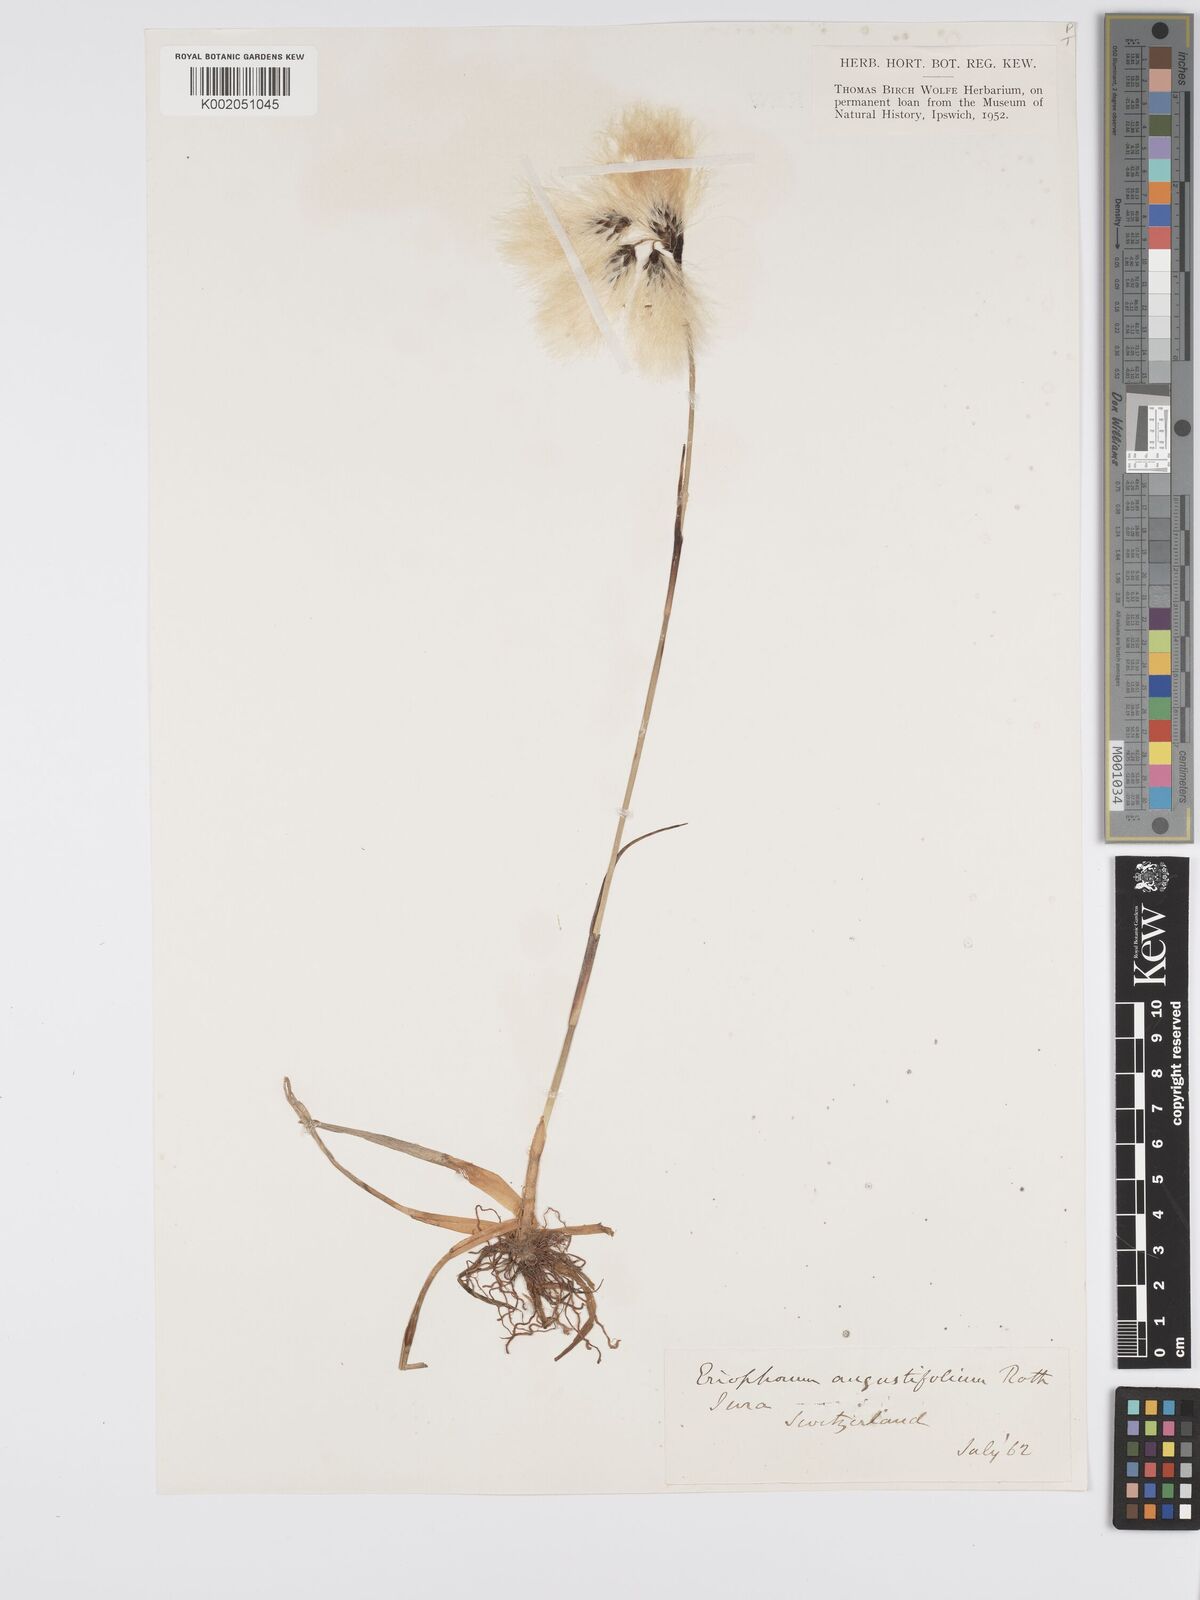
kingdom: Plantae
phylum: Tracheophyta
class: Liliopsida
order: Poales
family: Cyperaceae
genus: Eriophorum
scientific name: Eriophorum angustifolium
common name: Common cottongrass
